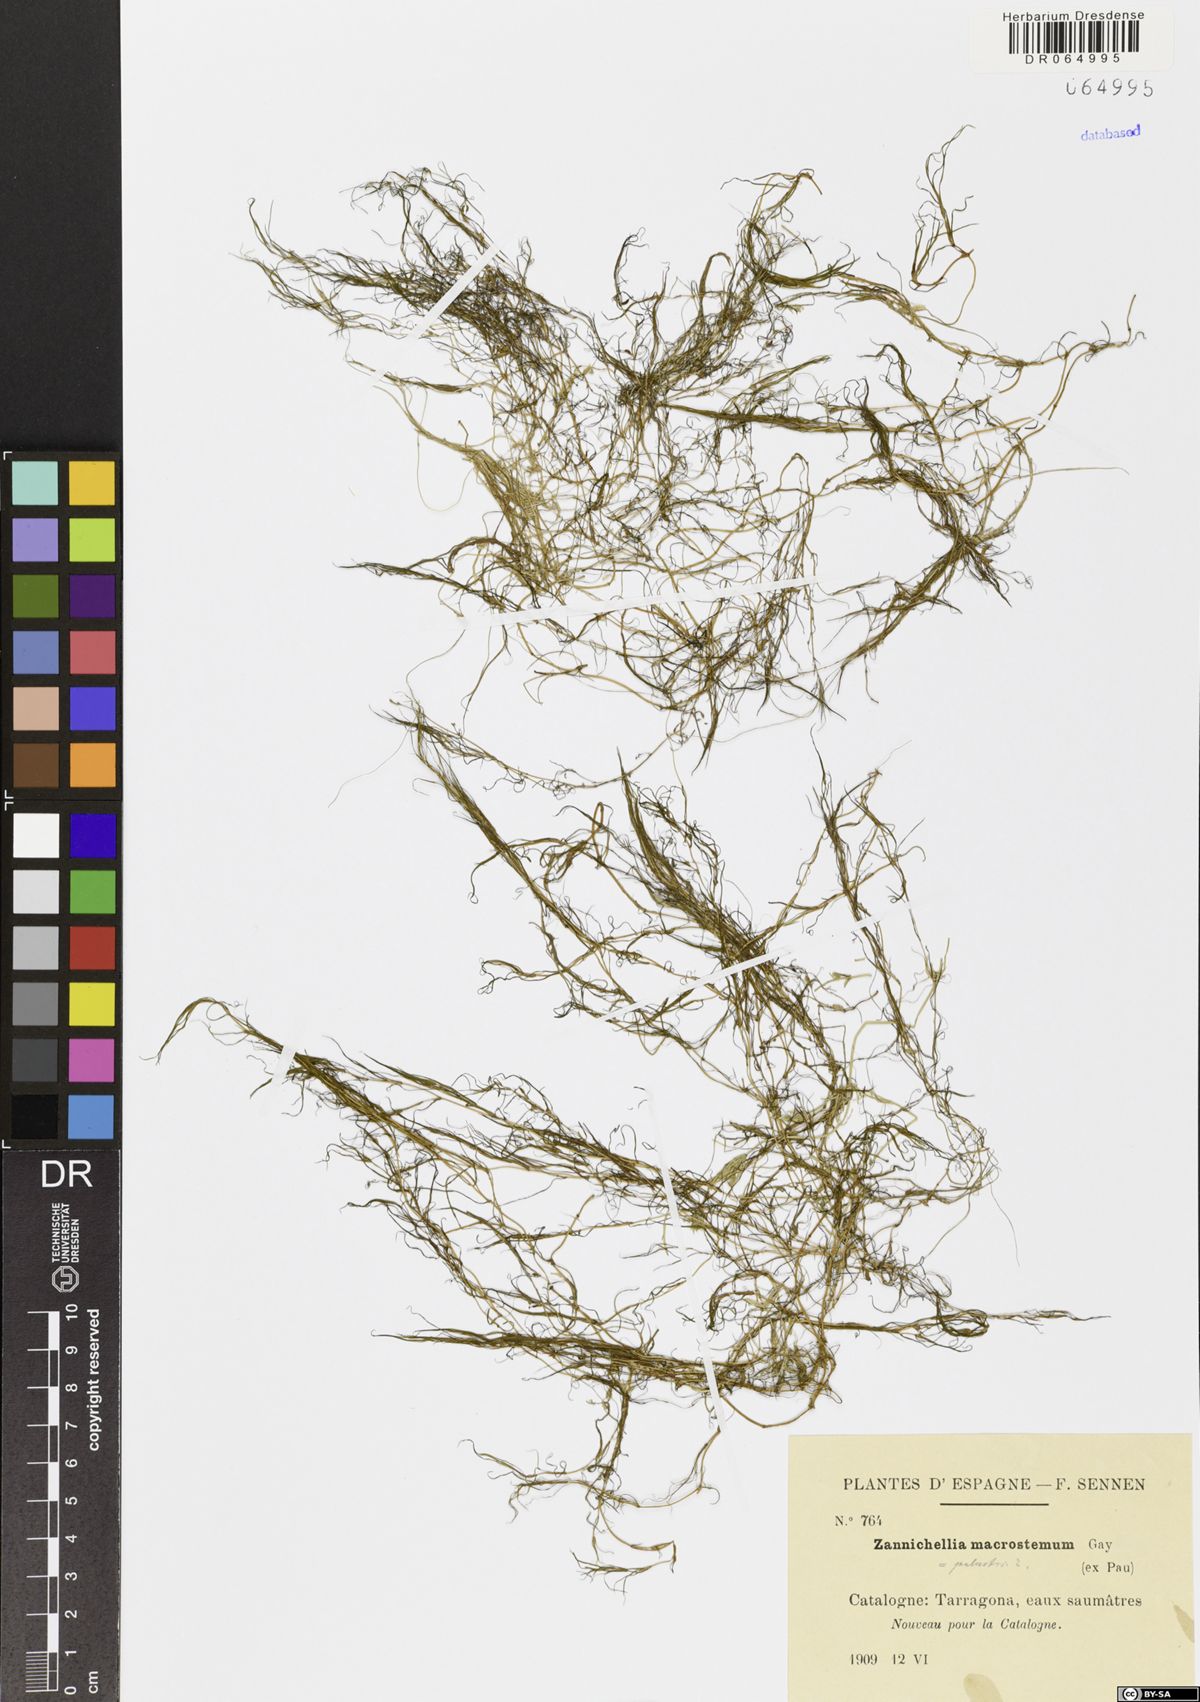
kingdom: Plantae
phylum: Tracheophyta
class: Liliopsida
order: Alismatales
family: Potamogetonaceae
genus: Zannichellia
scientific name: Zannichellia palustris
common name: Horned pondweed
